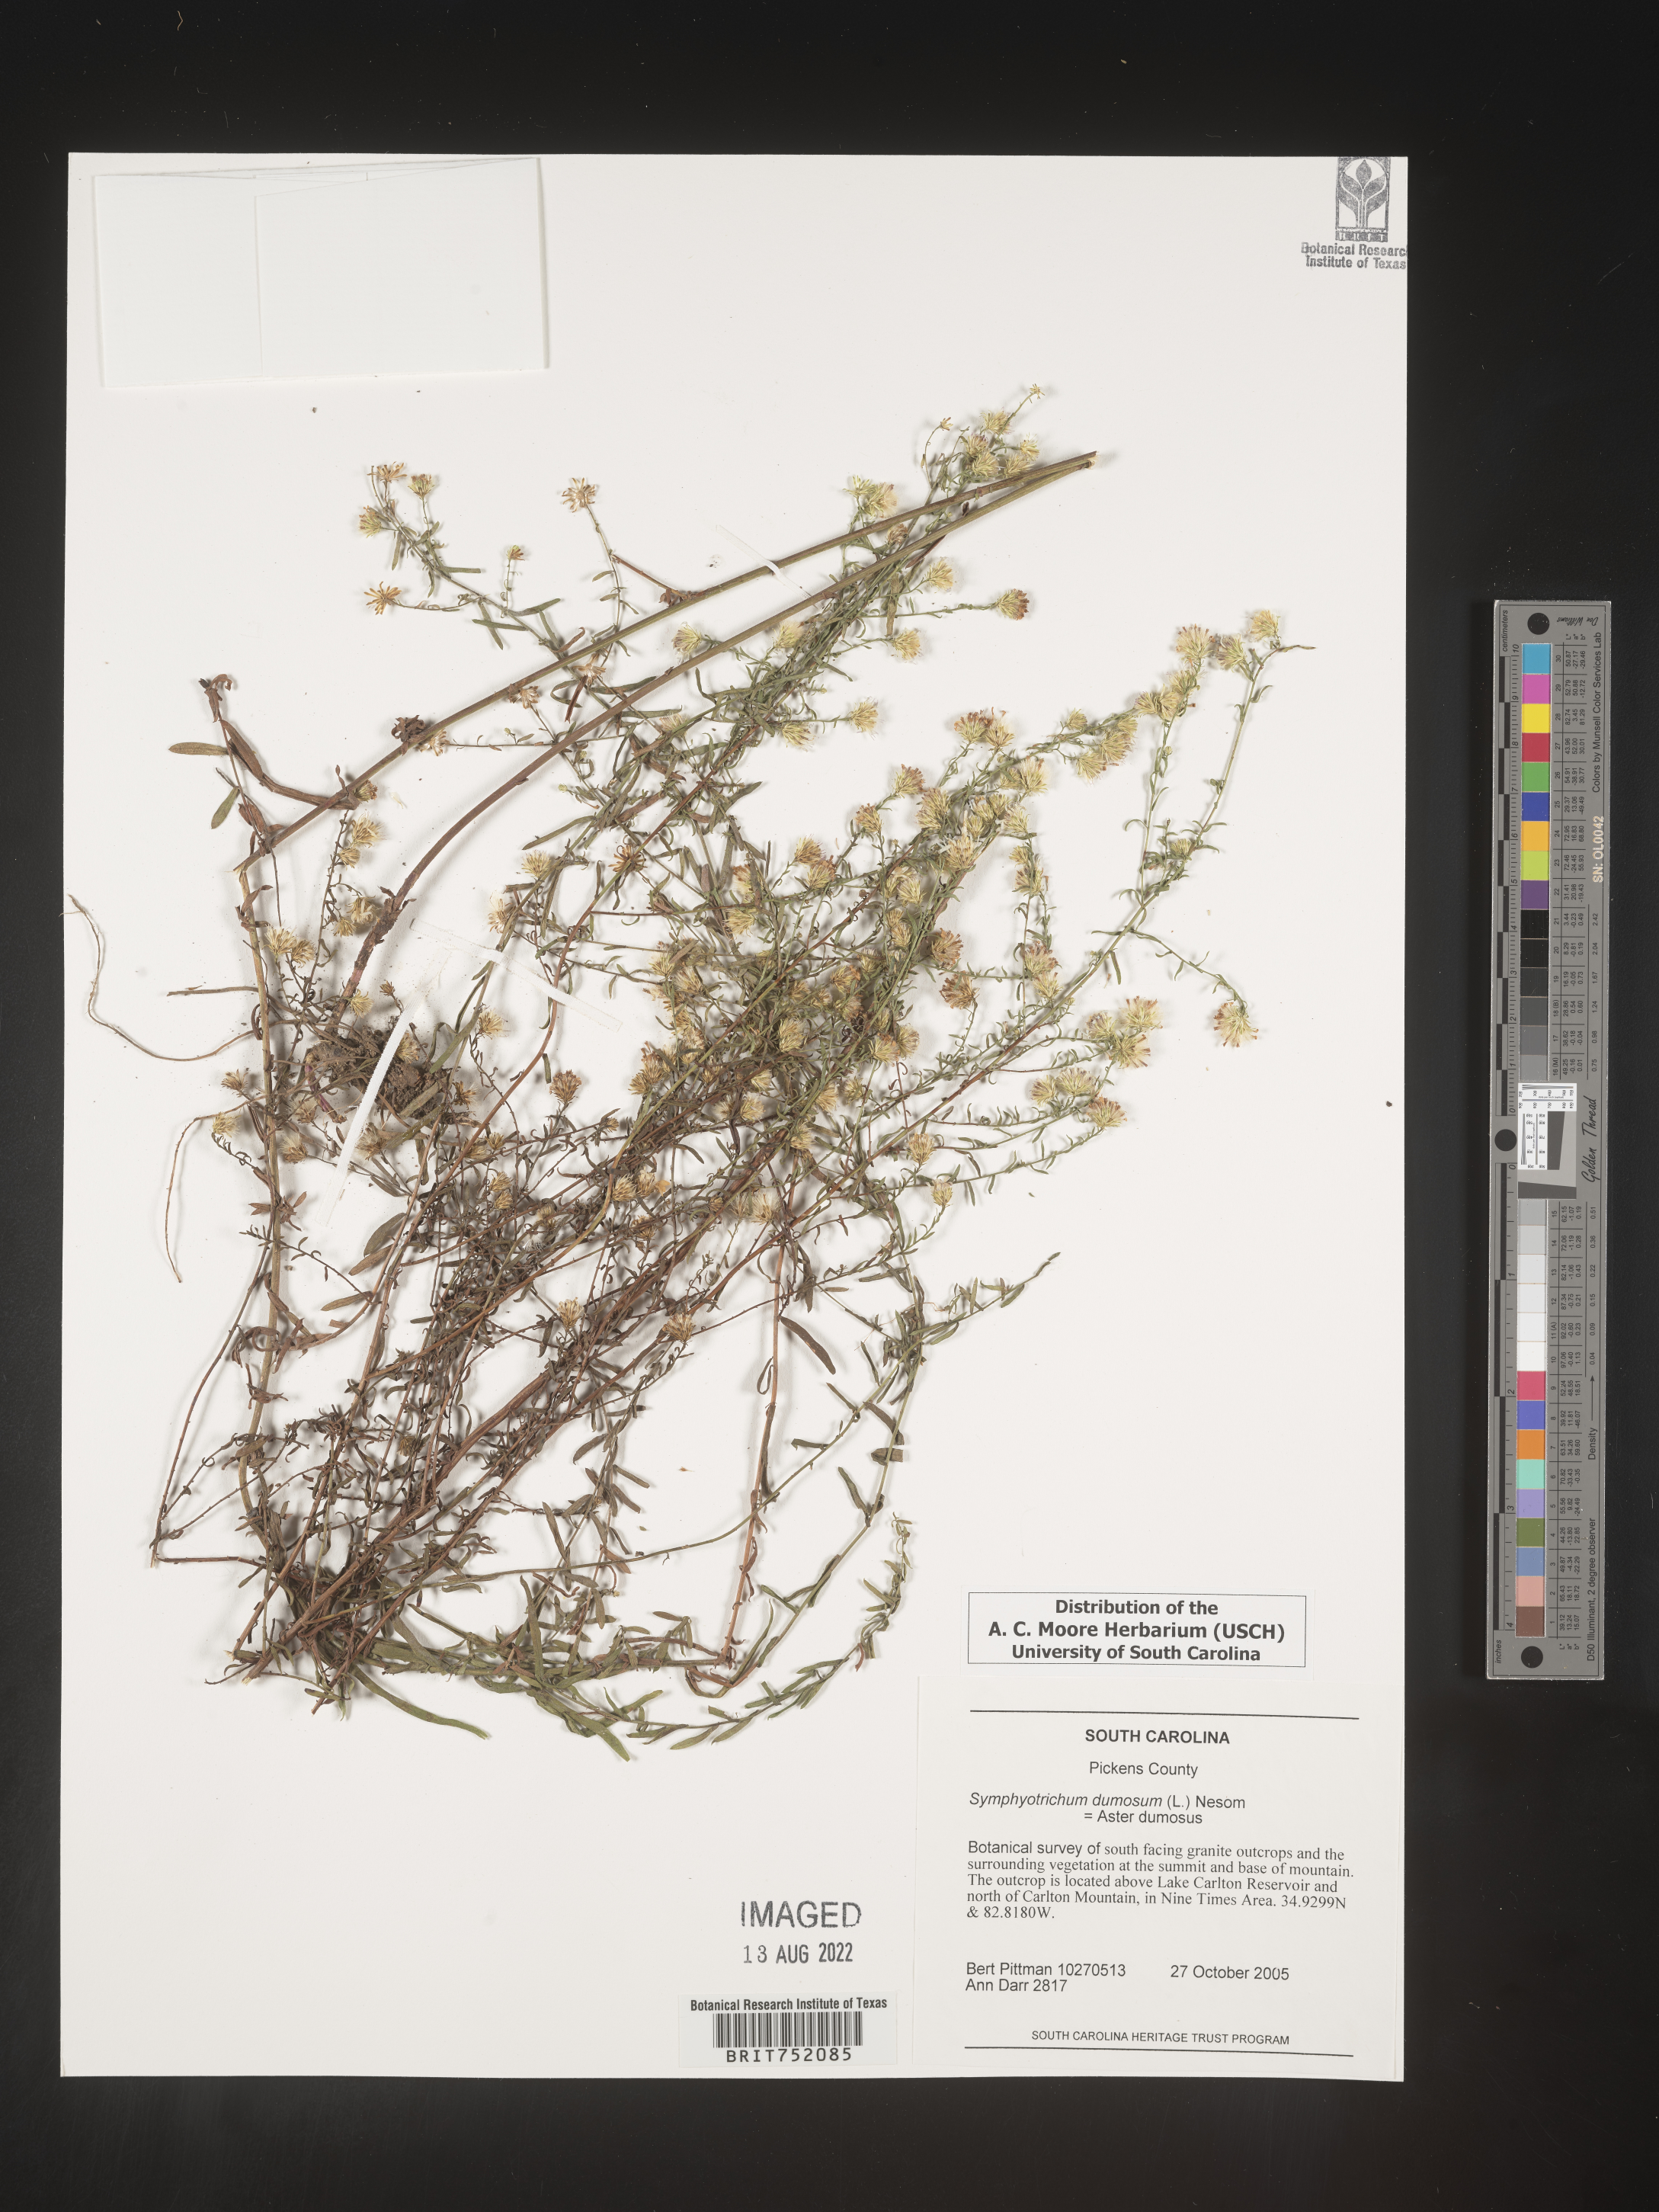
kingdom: Plantae
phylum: Tracheophyta
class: Magnoliopsida
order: Asterales
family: Asteraceae
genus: Symphyotrichum
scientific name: Symphyotrichum dumosum
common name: Bushy aster
